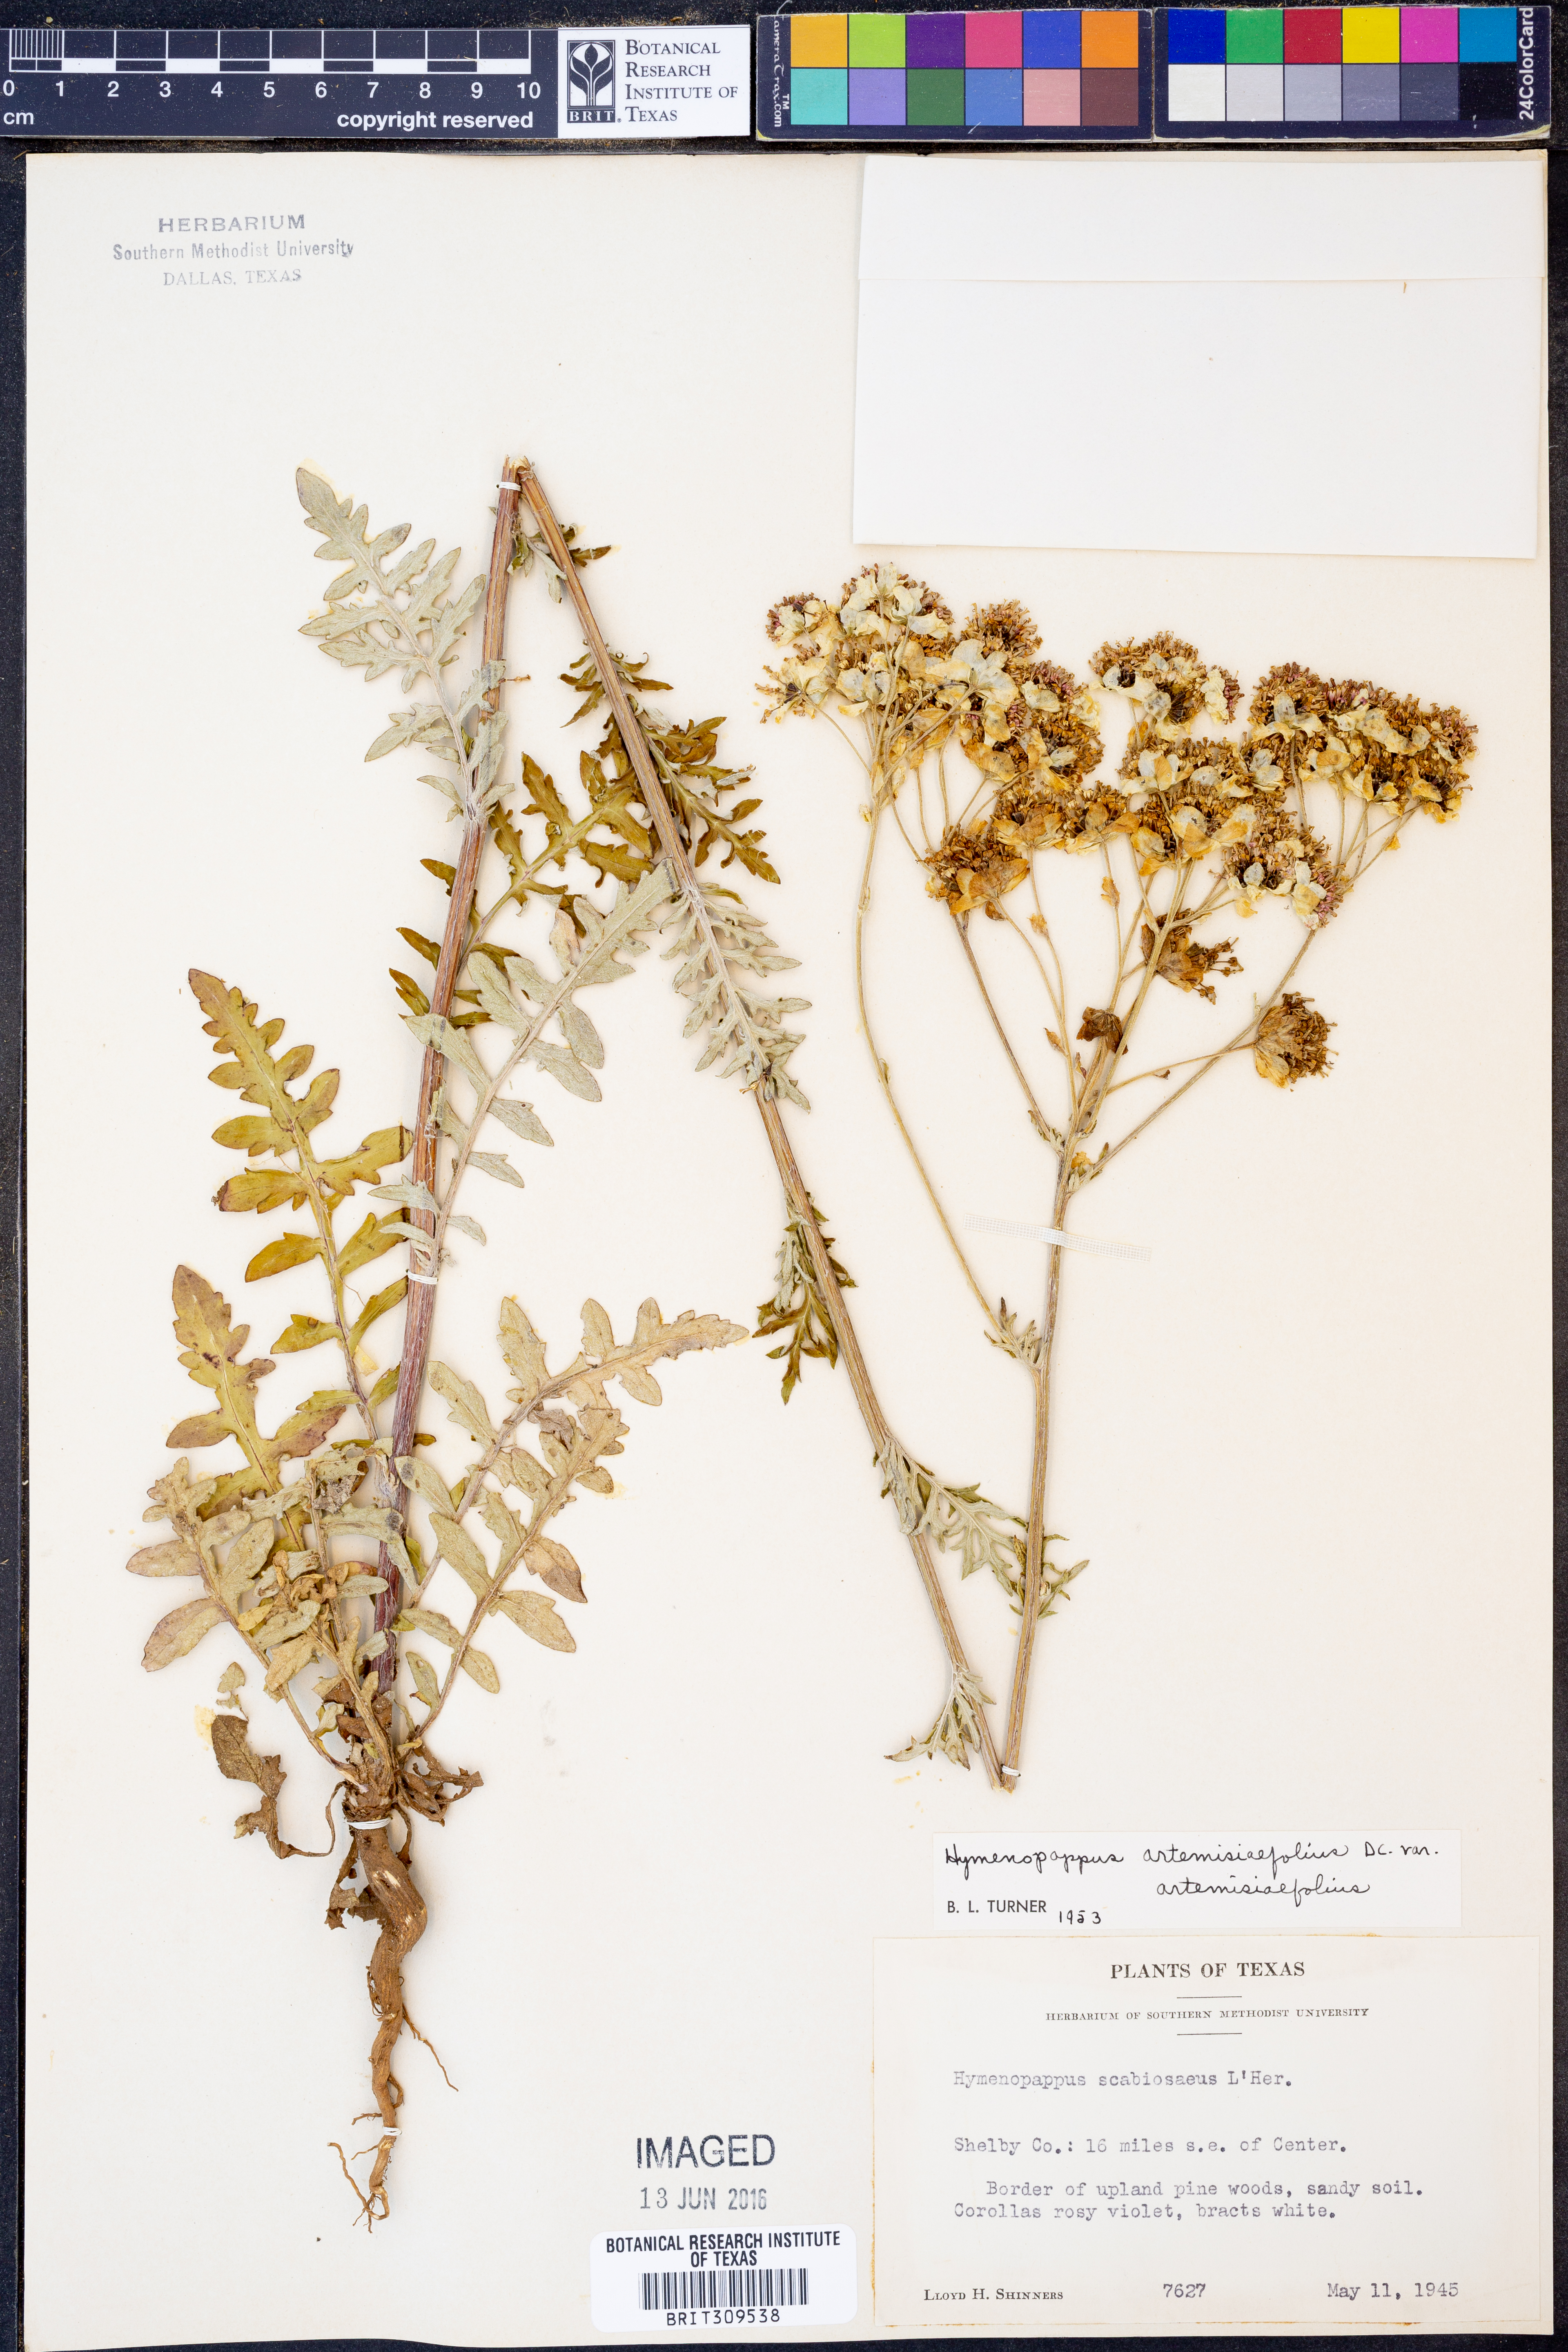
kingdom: Plantae
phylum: Tracheophyta
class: Magnoliopsida
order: Asterales
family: Asteraceae
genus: Hymenopappus
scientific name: Hymenopappus artemisiifolius
